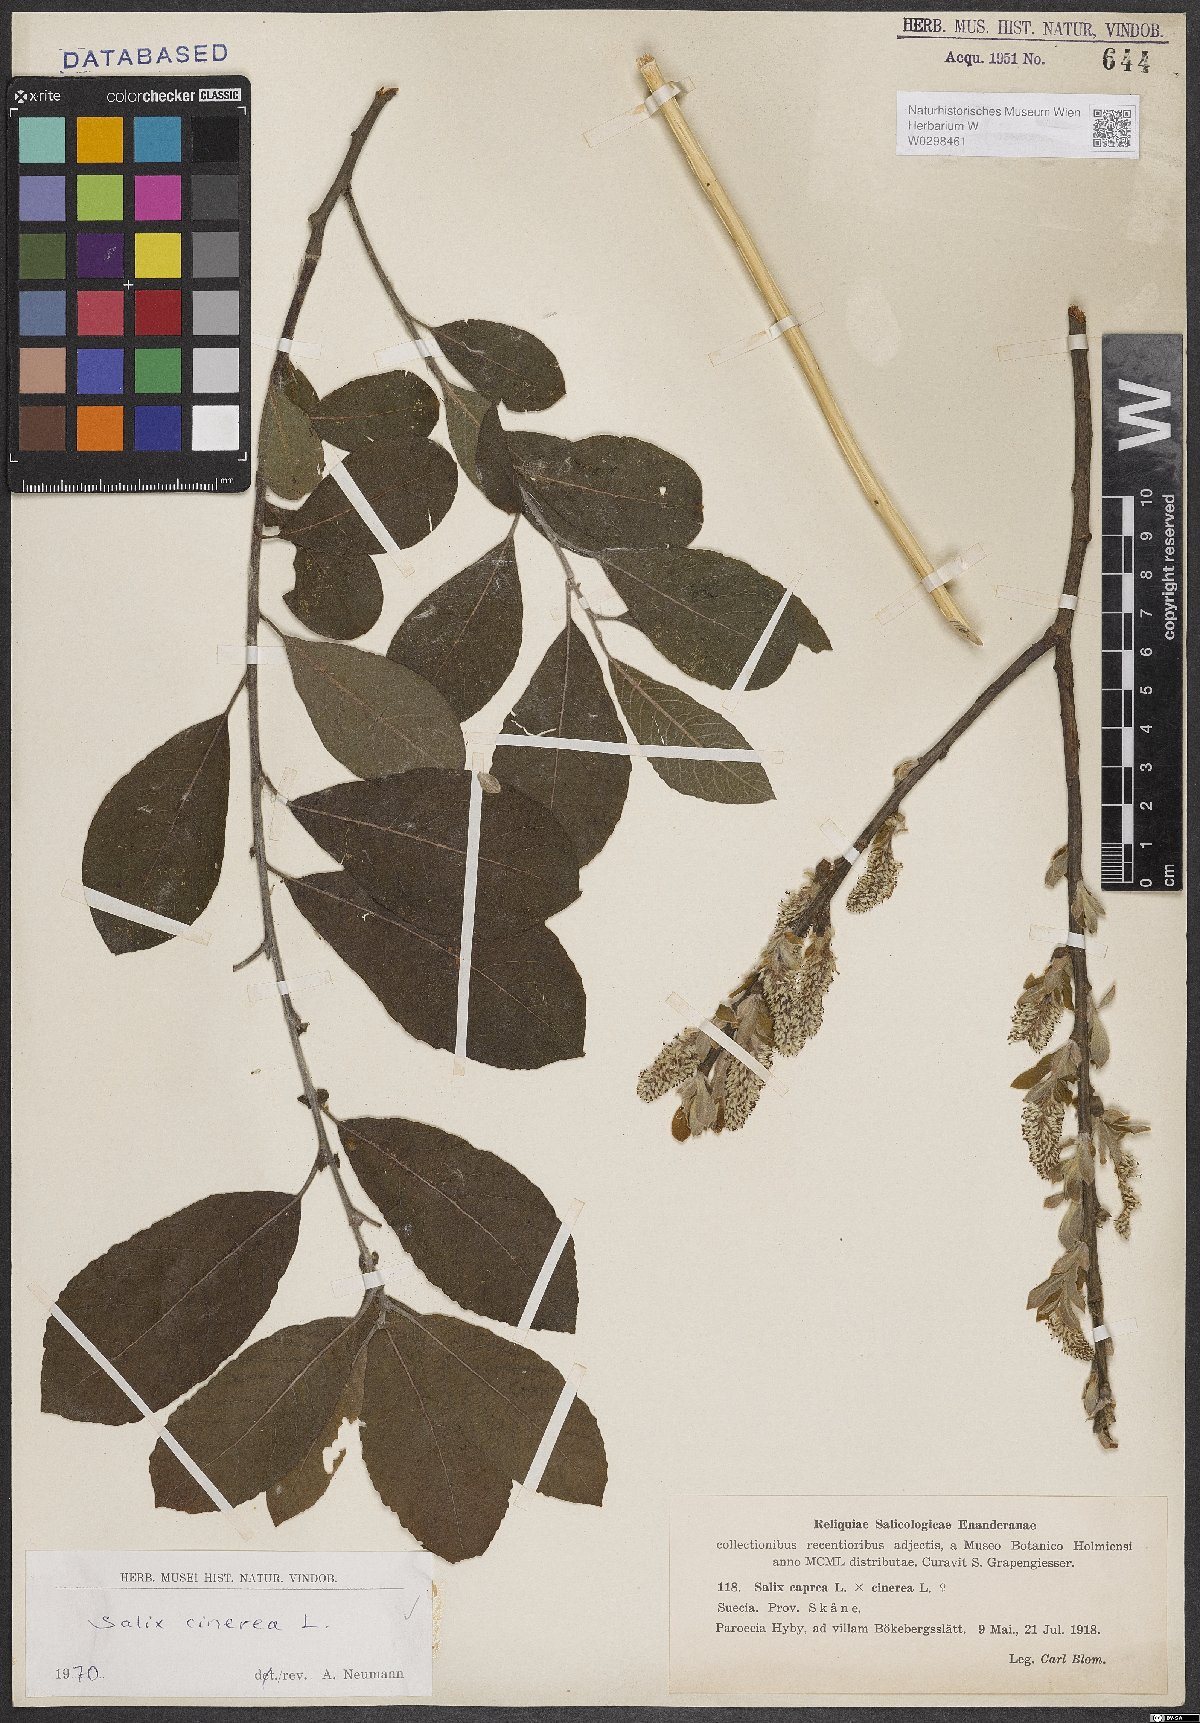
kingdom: Plantae
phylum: Tracheophyta
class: Magnoliopsida
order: Malpighiales
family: Salicaceae
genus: Salix
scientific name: Salix cinerea
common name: Common sallow
